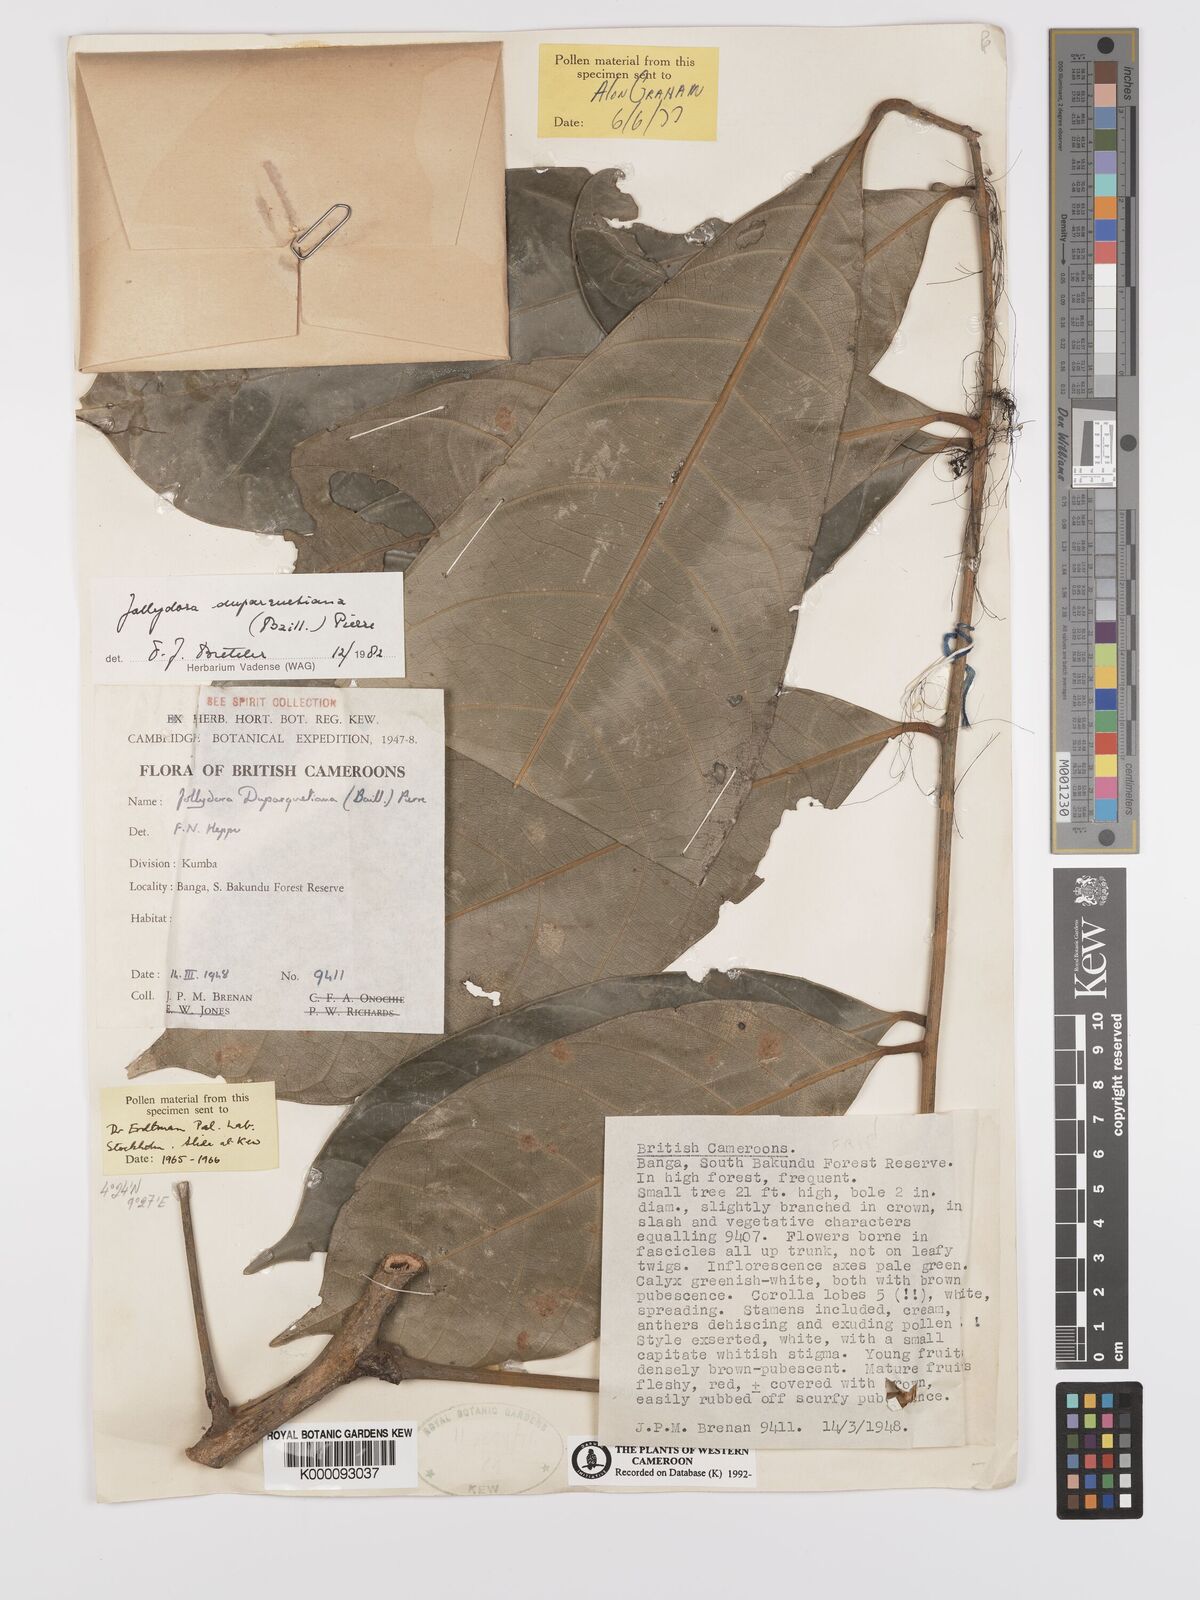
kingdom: Plantae
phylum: Tracheophyta
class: Magnoliopsida
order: Oxalidales
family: Connaraceae
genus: Jollydora
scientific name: Jollydora duparquetiana
